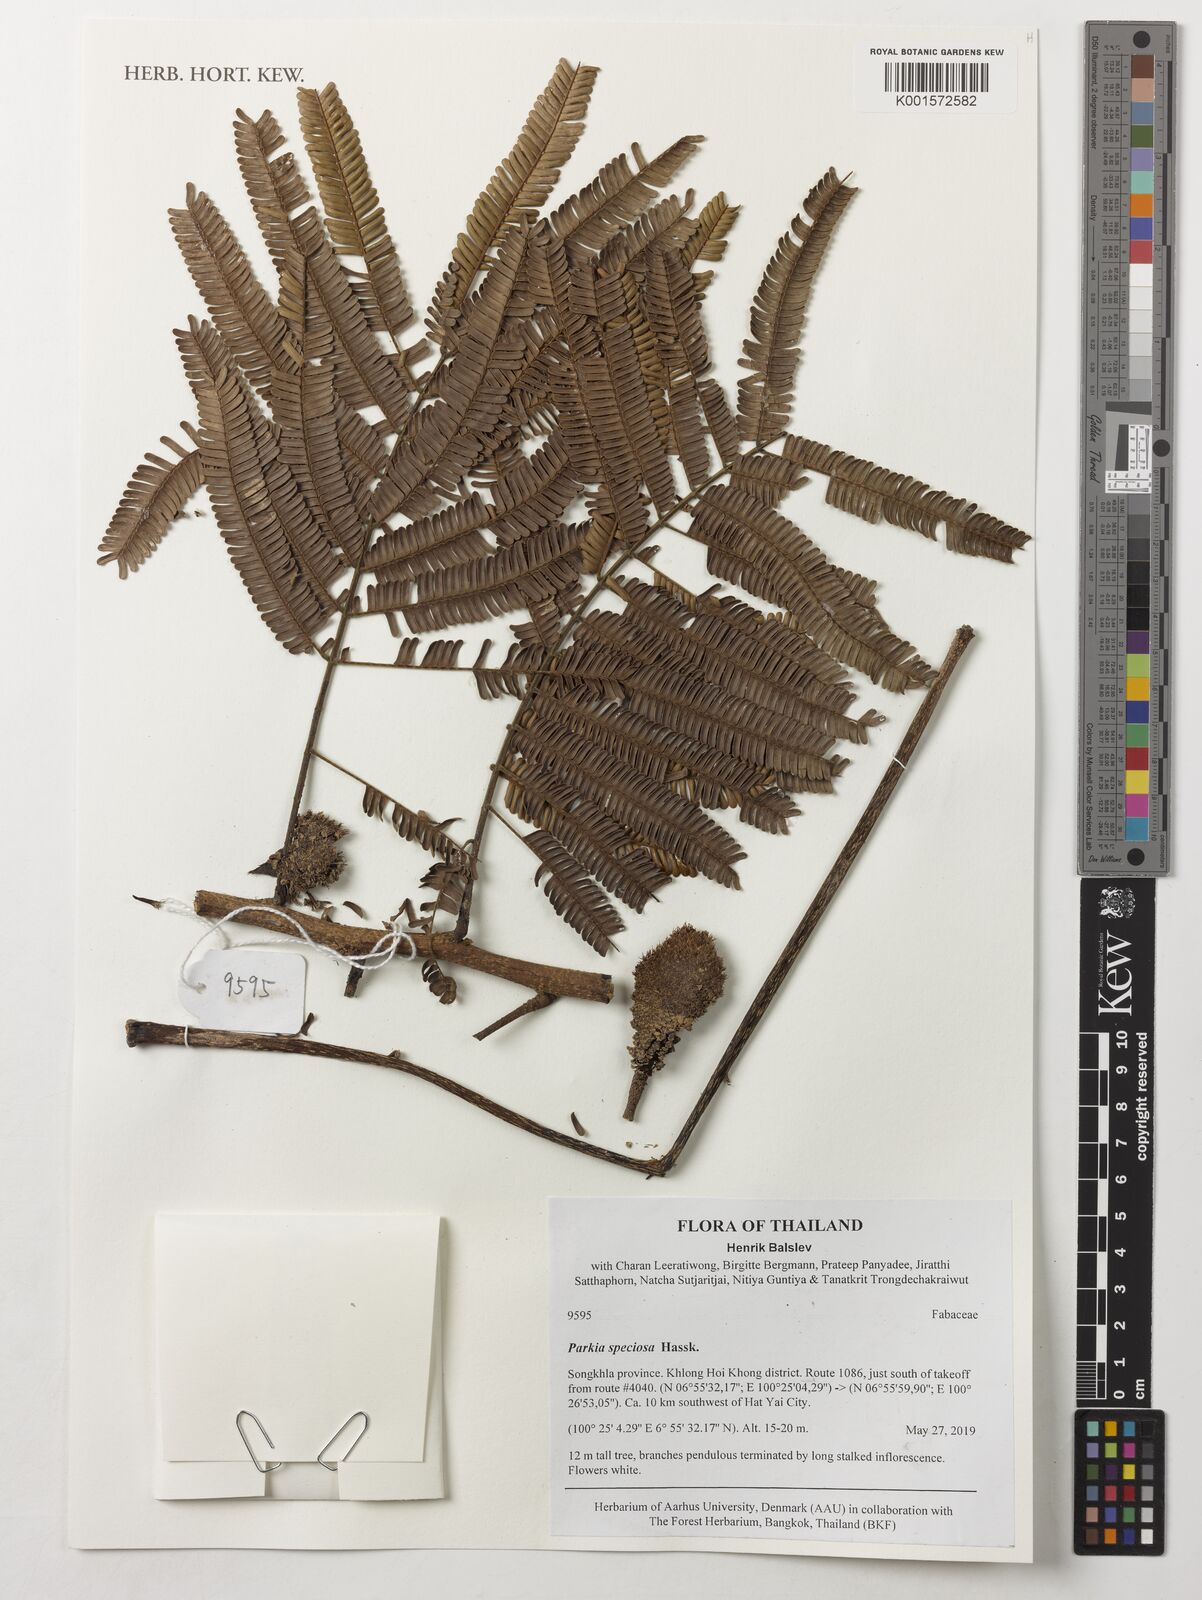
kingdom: Plantae
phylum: Tracheophyta
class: Magnoliopsida
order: Fabales
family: Fabaceae
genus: Parkia
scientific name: Parkia speciosa
